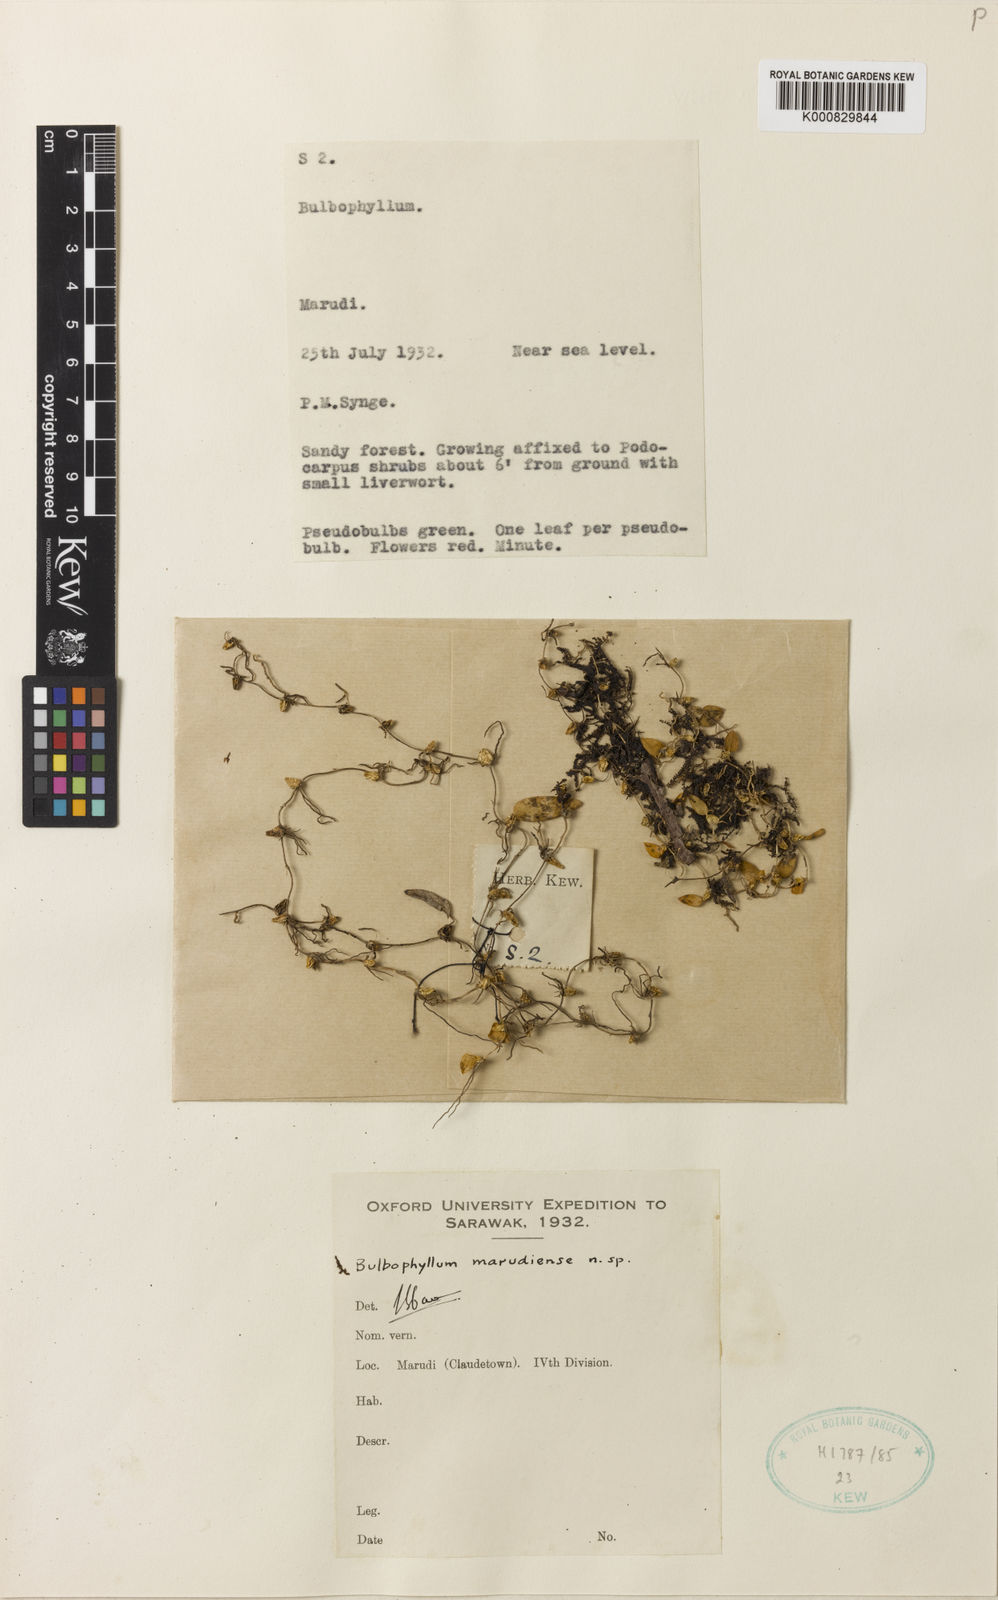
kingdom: Plantae
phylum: Tracheophyta
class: Liliopsida
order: Asparagales
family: Orchidaceae
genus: Bulbophyllum
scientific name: Bulbophyllum marudiense
